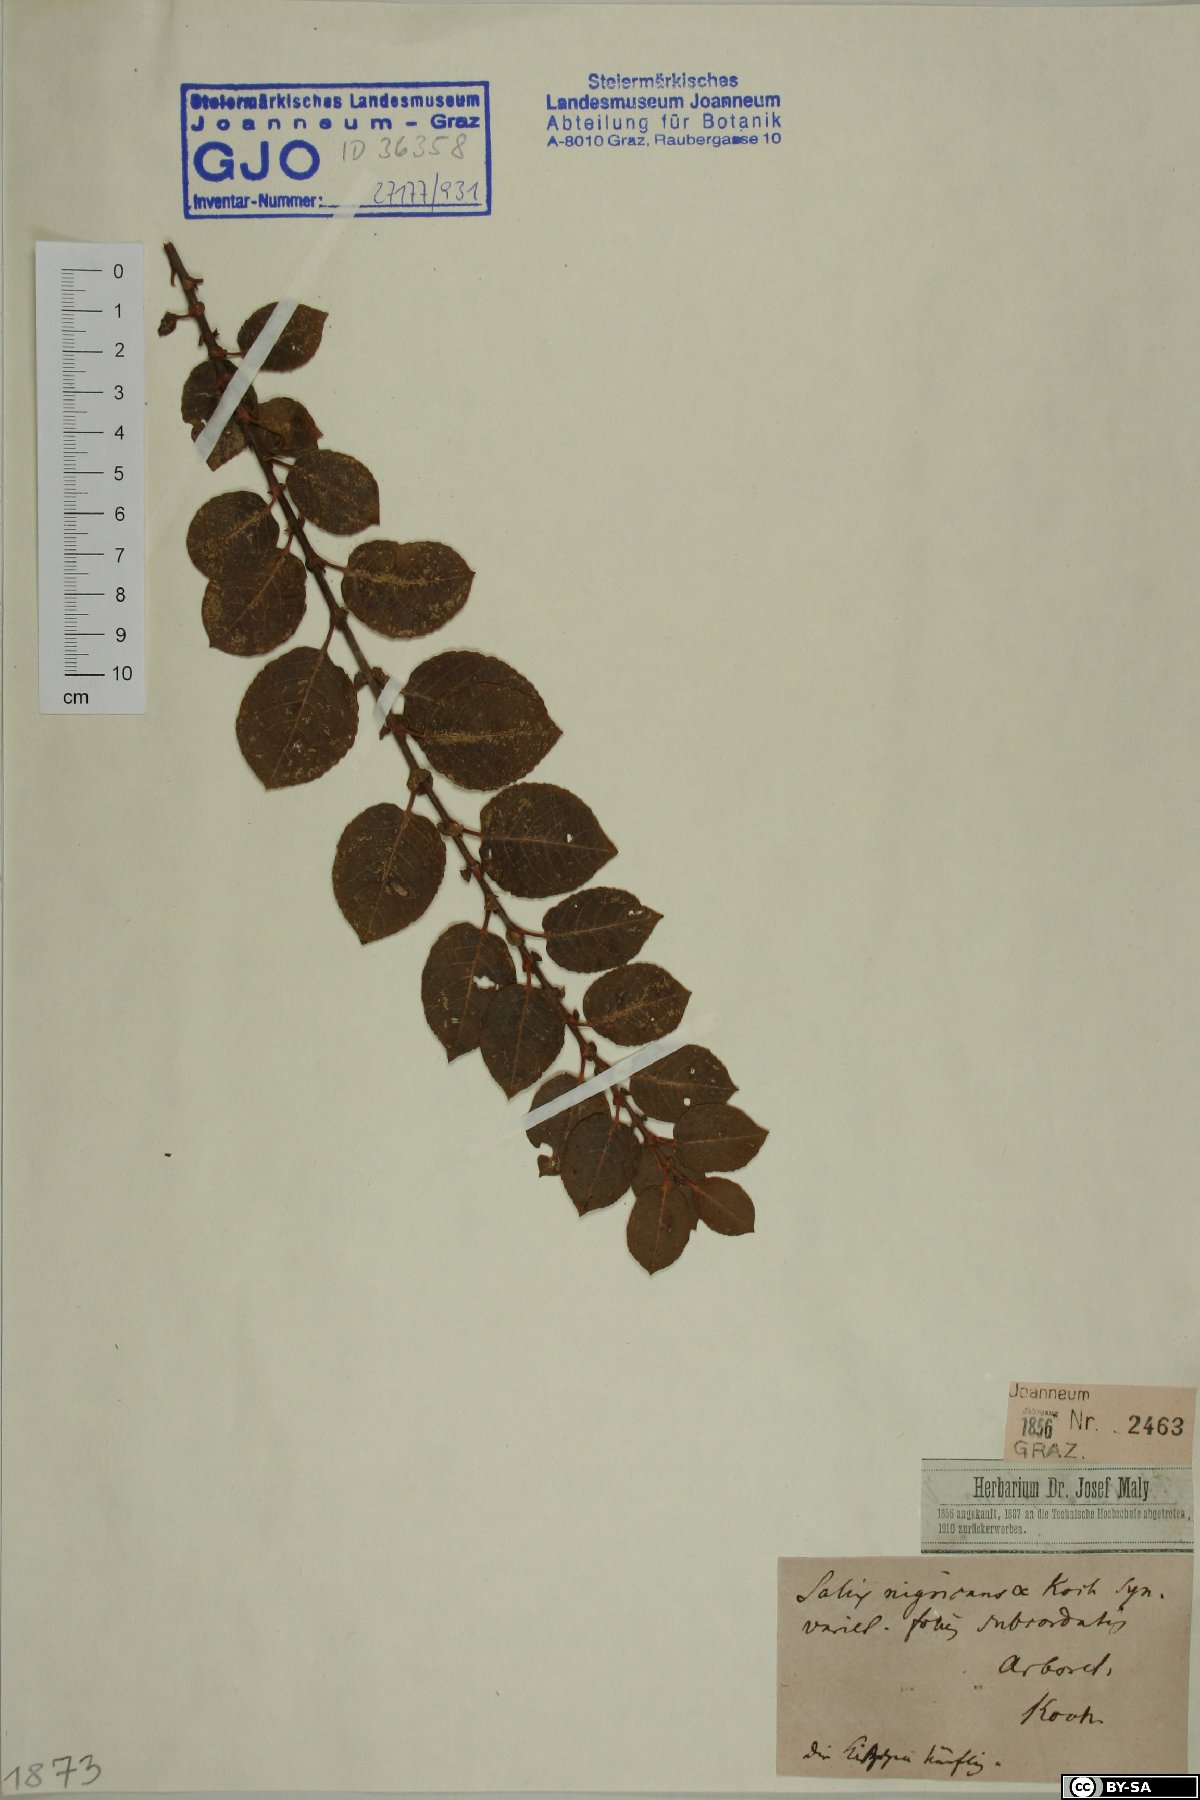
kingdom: Plantae
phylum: Tracheophyta
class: Magnoliopsida
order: Malpighiales
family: Salicaceae
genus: Salix
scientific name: Salix myrsinifolia
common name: Dark-leaved willow
